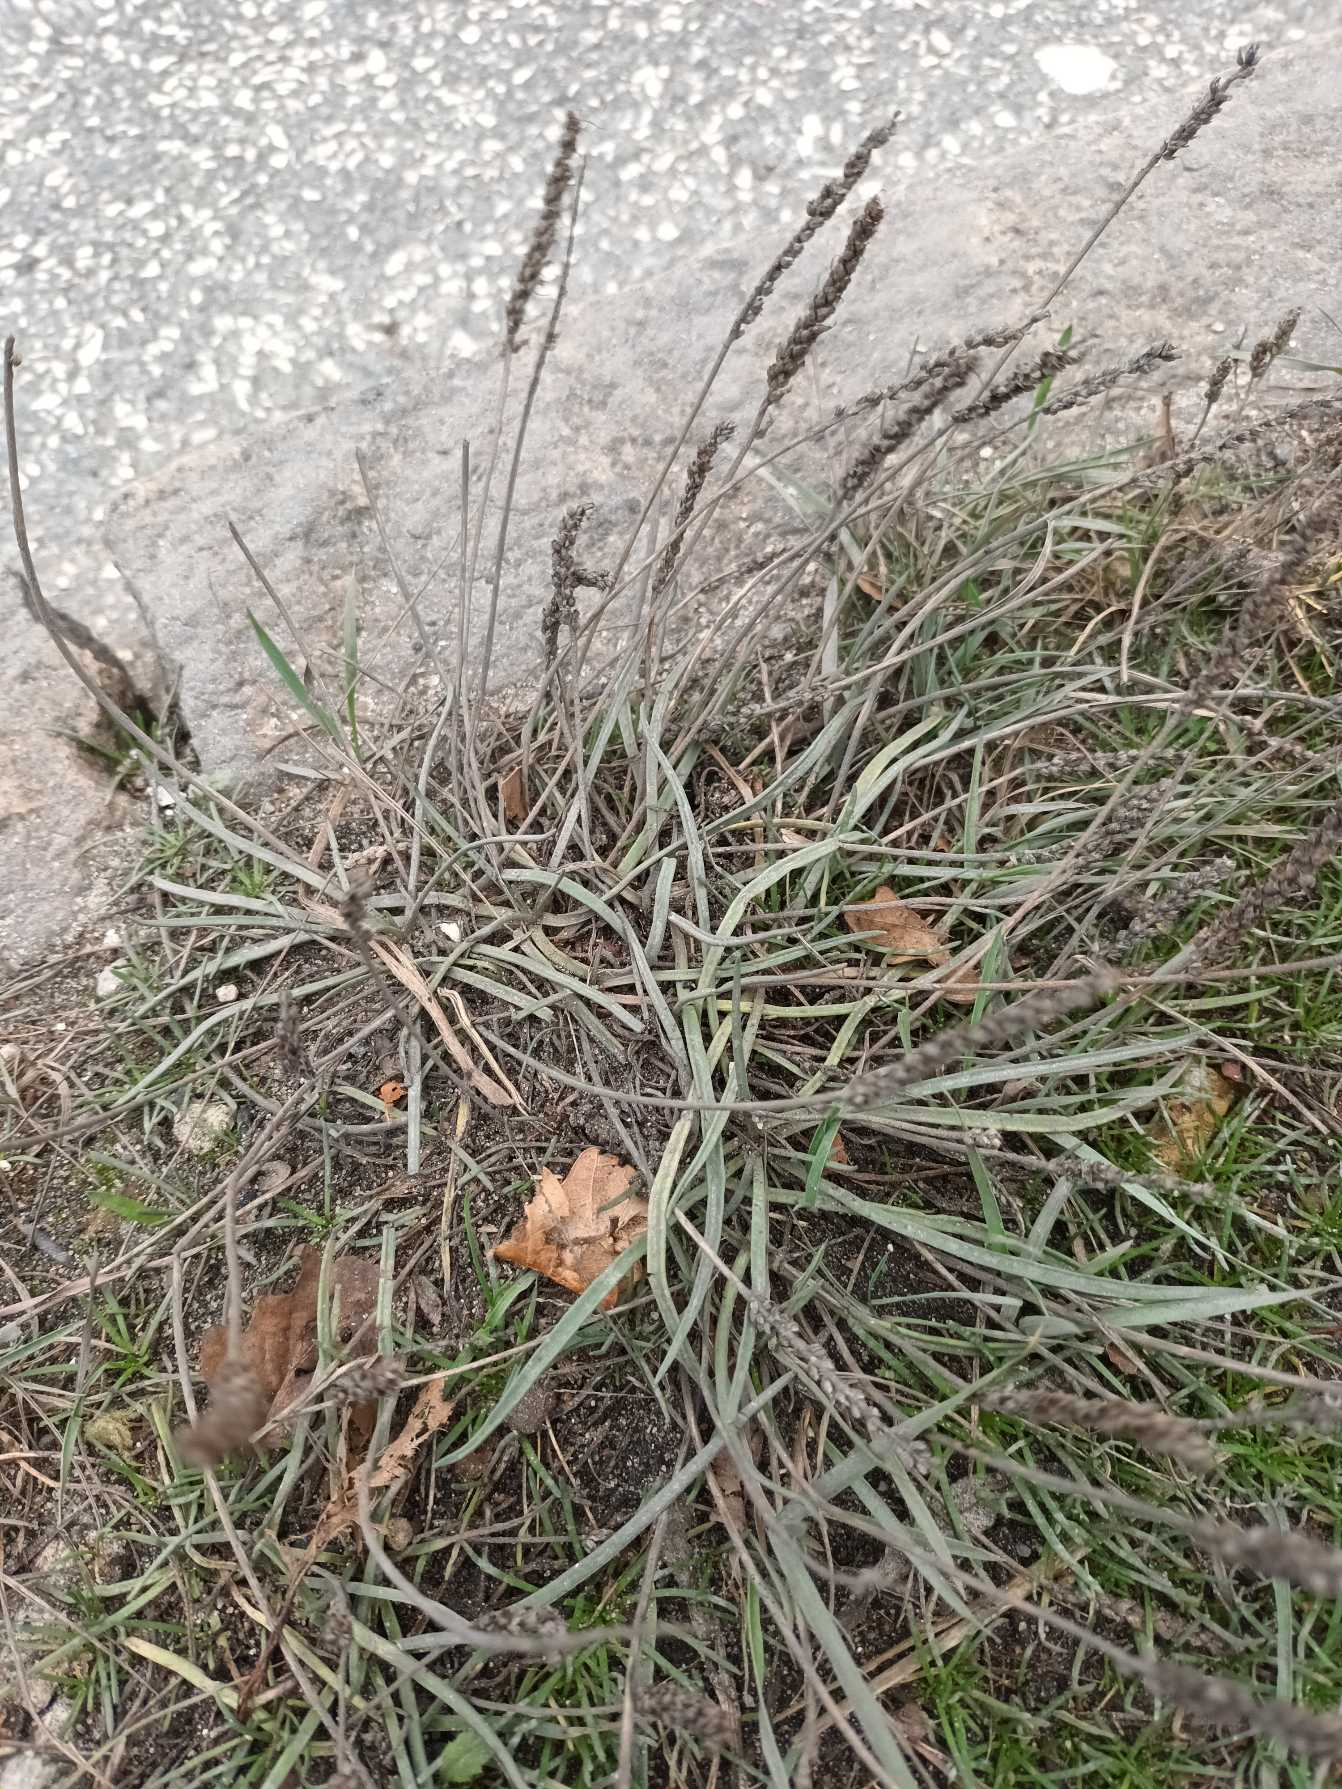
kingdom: Plantae
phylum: Tracheophyta
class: Magnoliopsida
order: Lamiales
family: Plantaginaceae
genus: Plantago
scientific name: Plantago maritima
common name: Strand-vejbred
